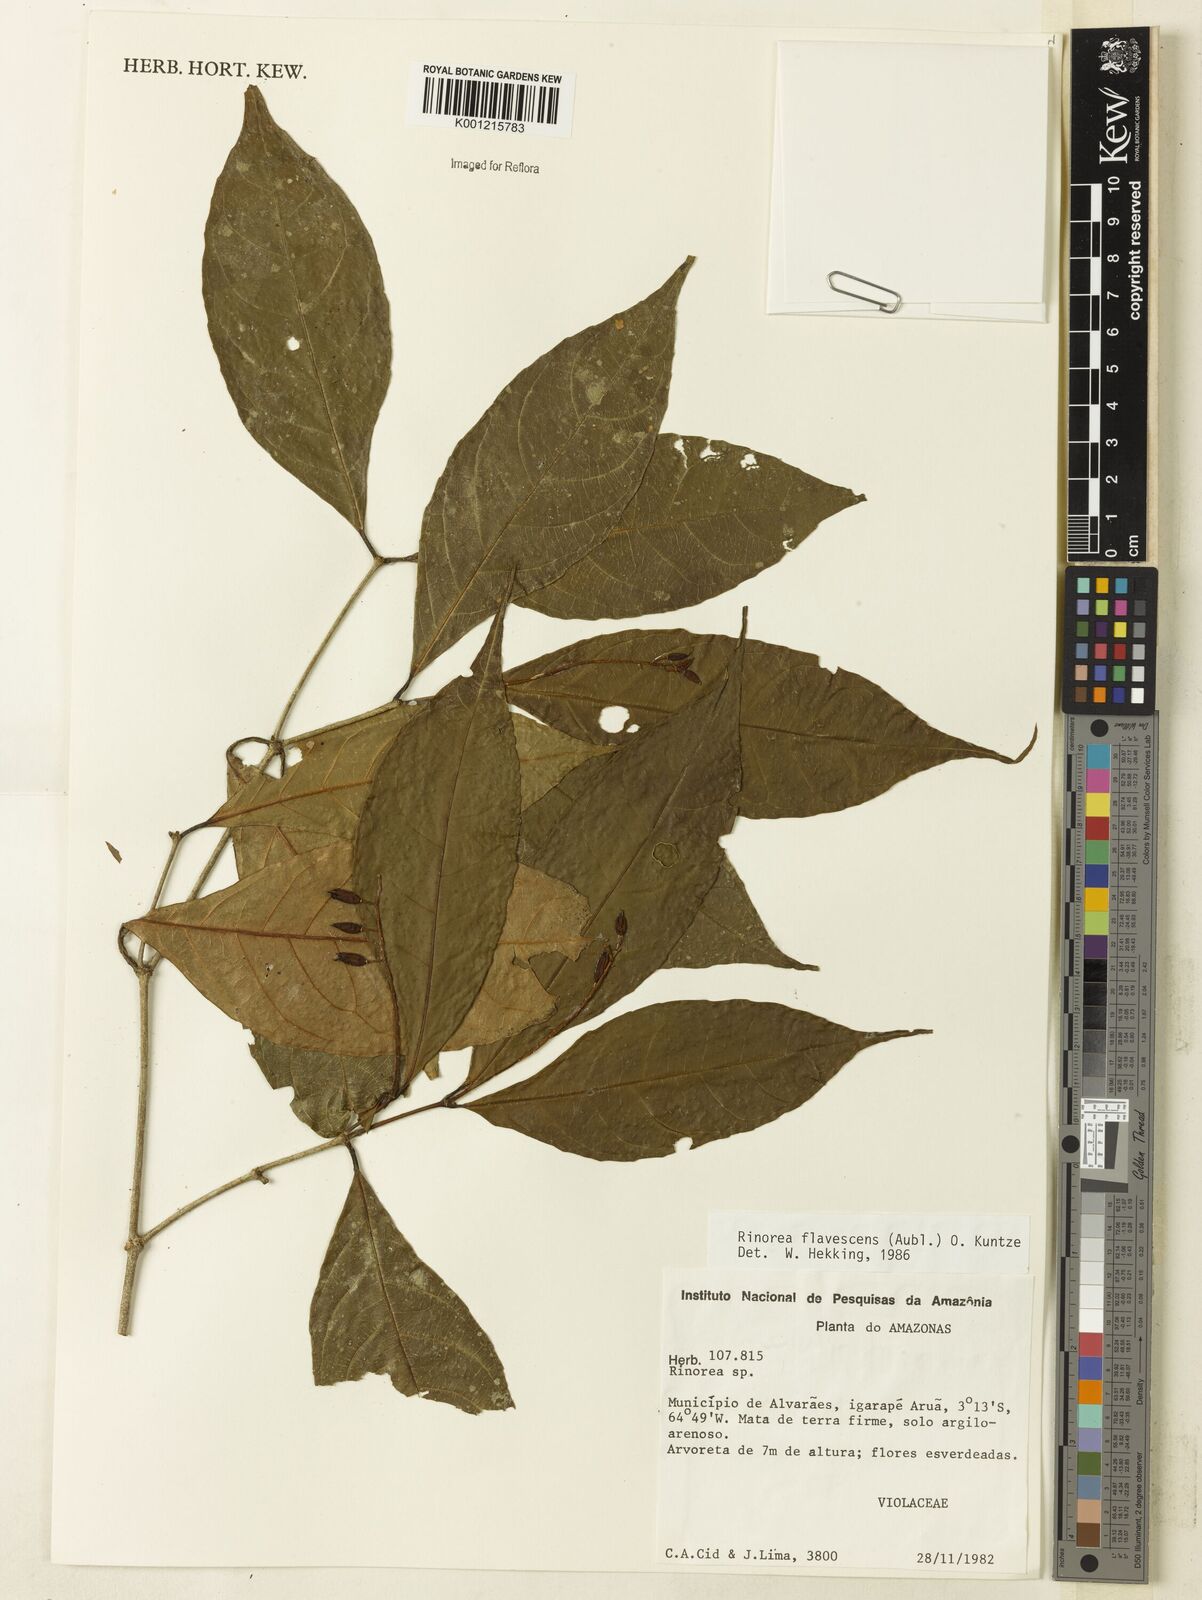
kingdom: Plantae
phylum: Tracheophyta
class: Magnoliopsida
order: Malpighiales
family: Violaceae
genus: Rinorea
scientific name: Rinorea flavescens
